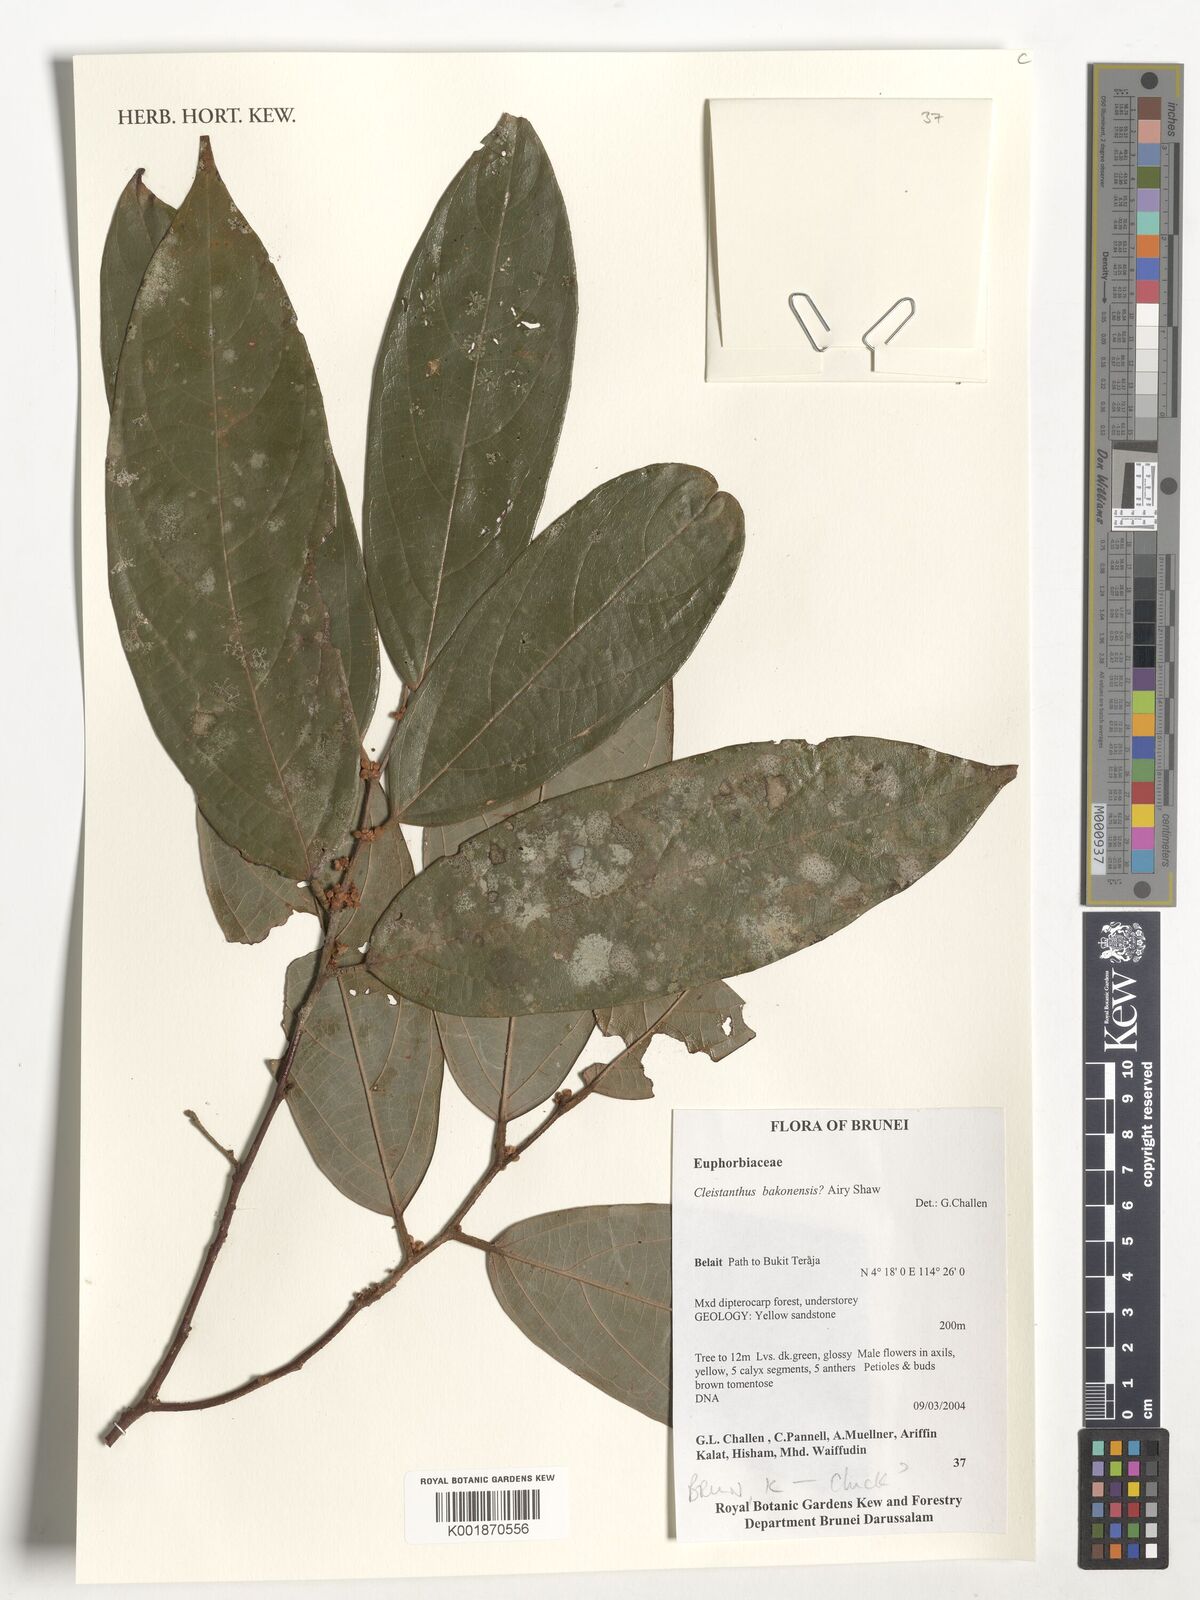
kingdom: Plantae
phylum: Tracheophyta
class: Magnoliopsida
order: Malpighiales
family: Phyllanthaceae
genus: Cleistanthus
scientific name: Cleistanthus bakonensis
